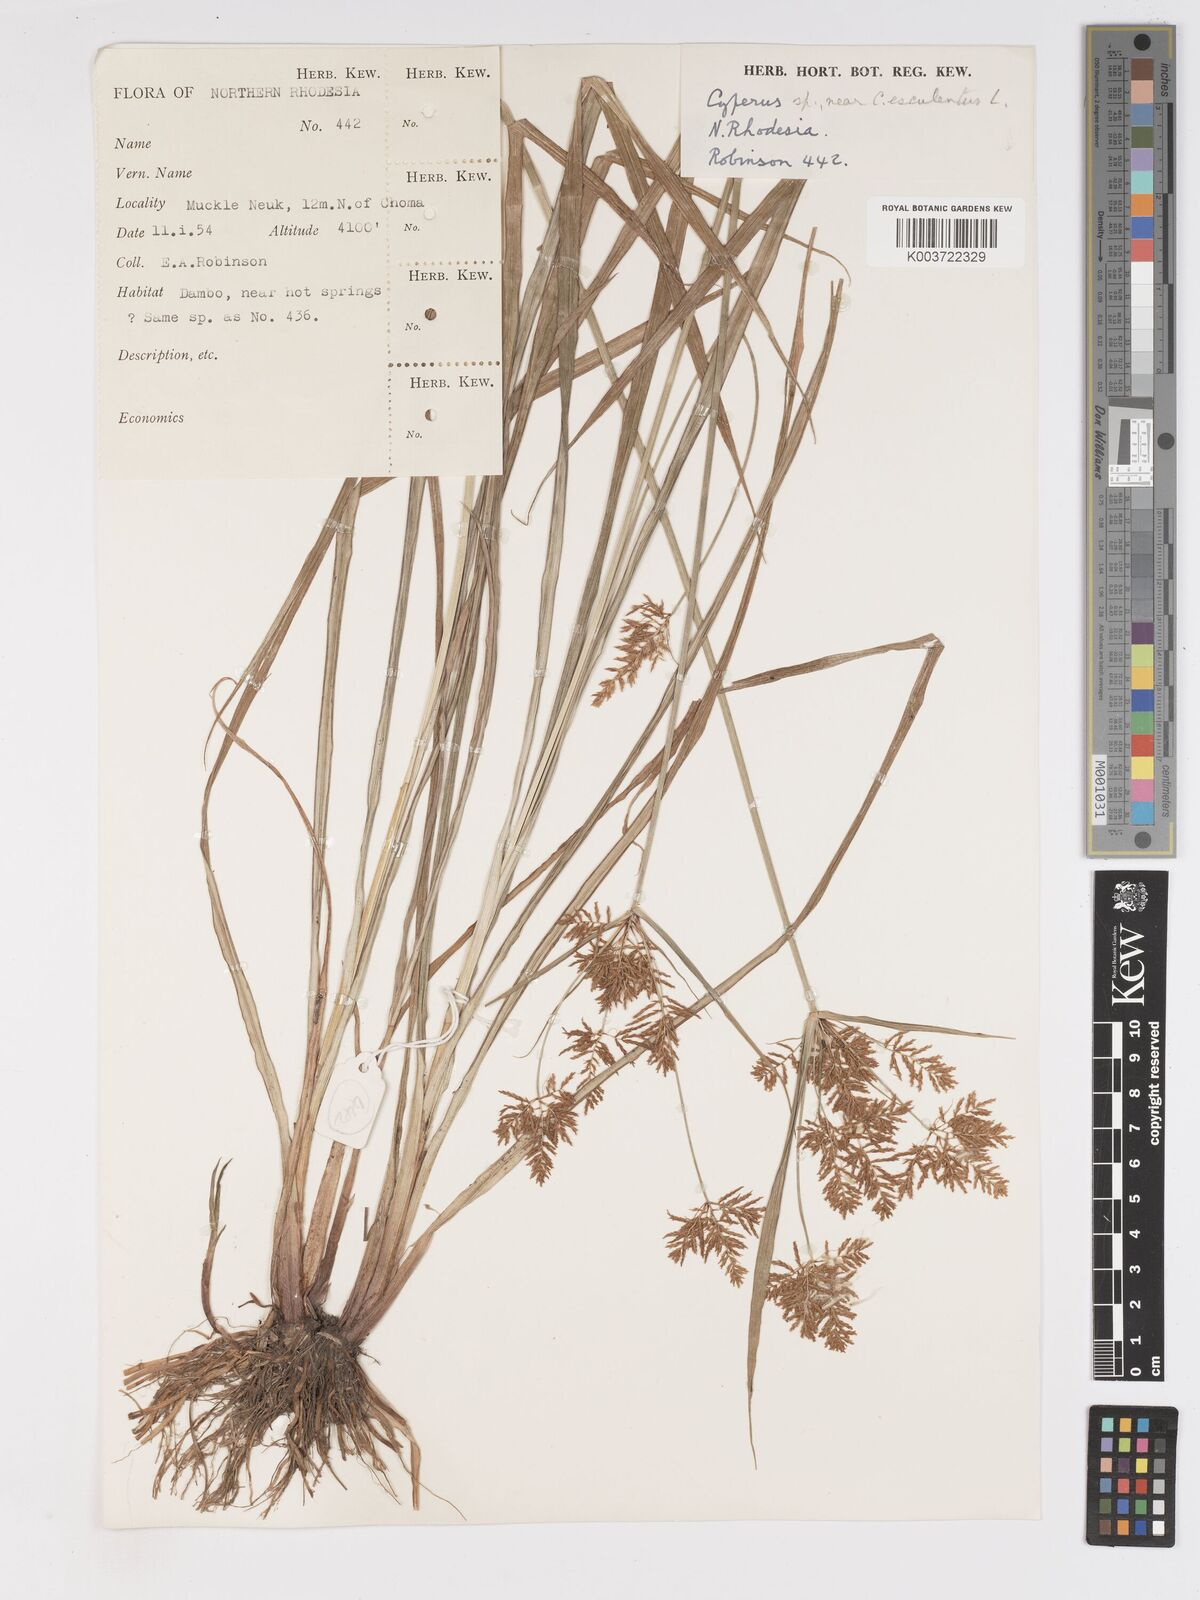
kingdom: Plantae
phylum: Tracheophyta
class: Liliopsida
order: Poales
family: Cyperaceae
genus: Cyperus
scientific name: Cyperus esculentus
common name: Yellow nutsedge
